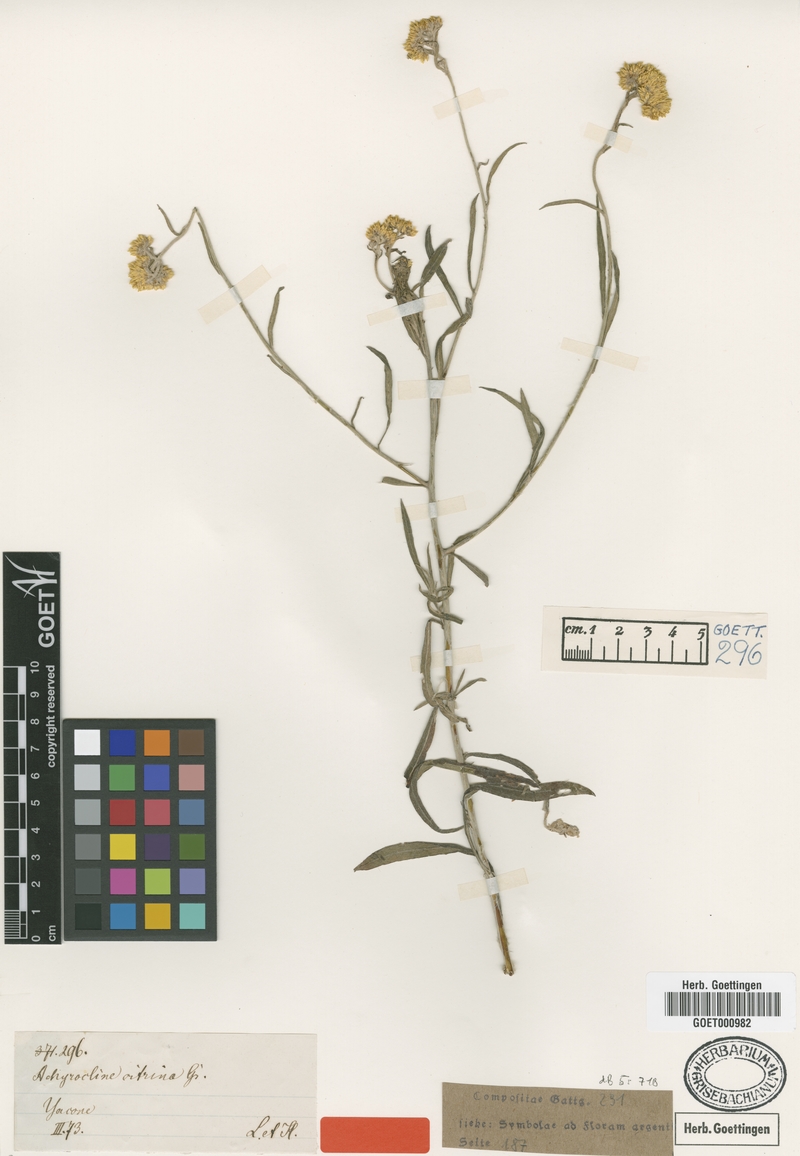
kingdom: Plantae
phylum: Tracheophyta
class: Magnoliopsida
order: Asterales
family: Asteraceae
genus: Achyrocline
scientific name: Achyrocline flaccida
